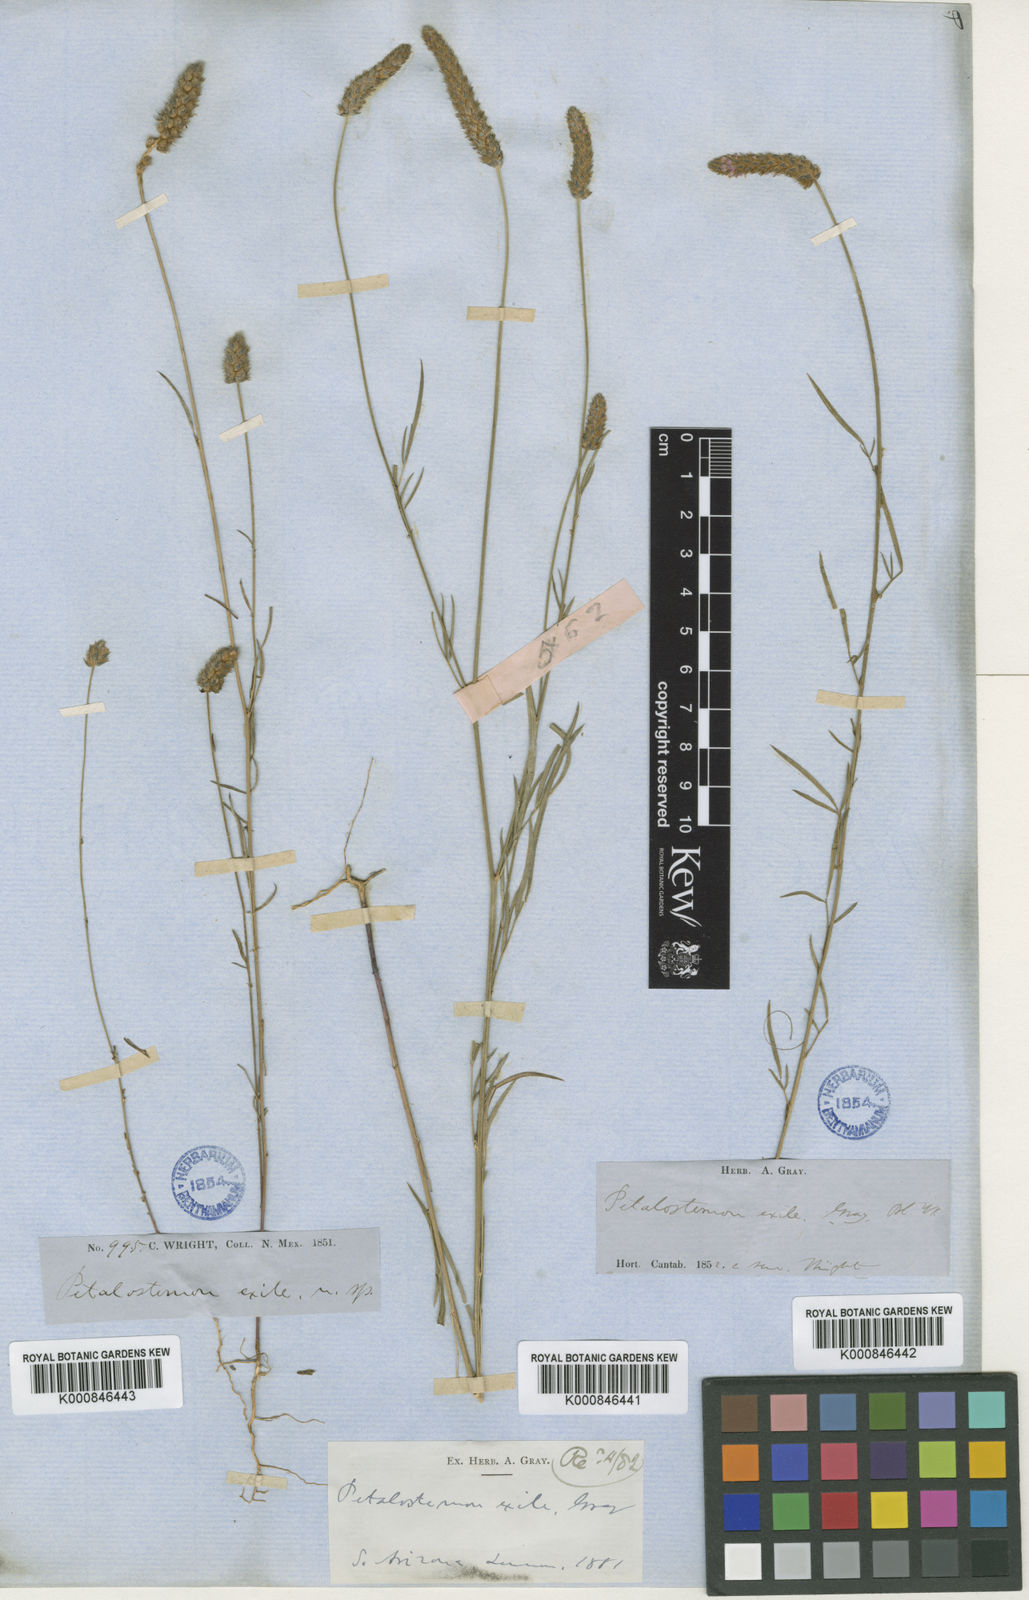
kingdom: Plantae
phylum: Tracheophyta
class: Magnoliopsida
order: Fabales
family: Fabaceae
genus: Dalea
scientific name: Dalea exigua
